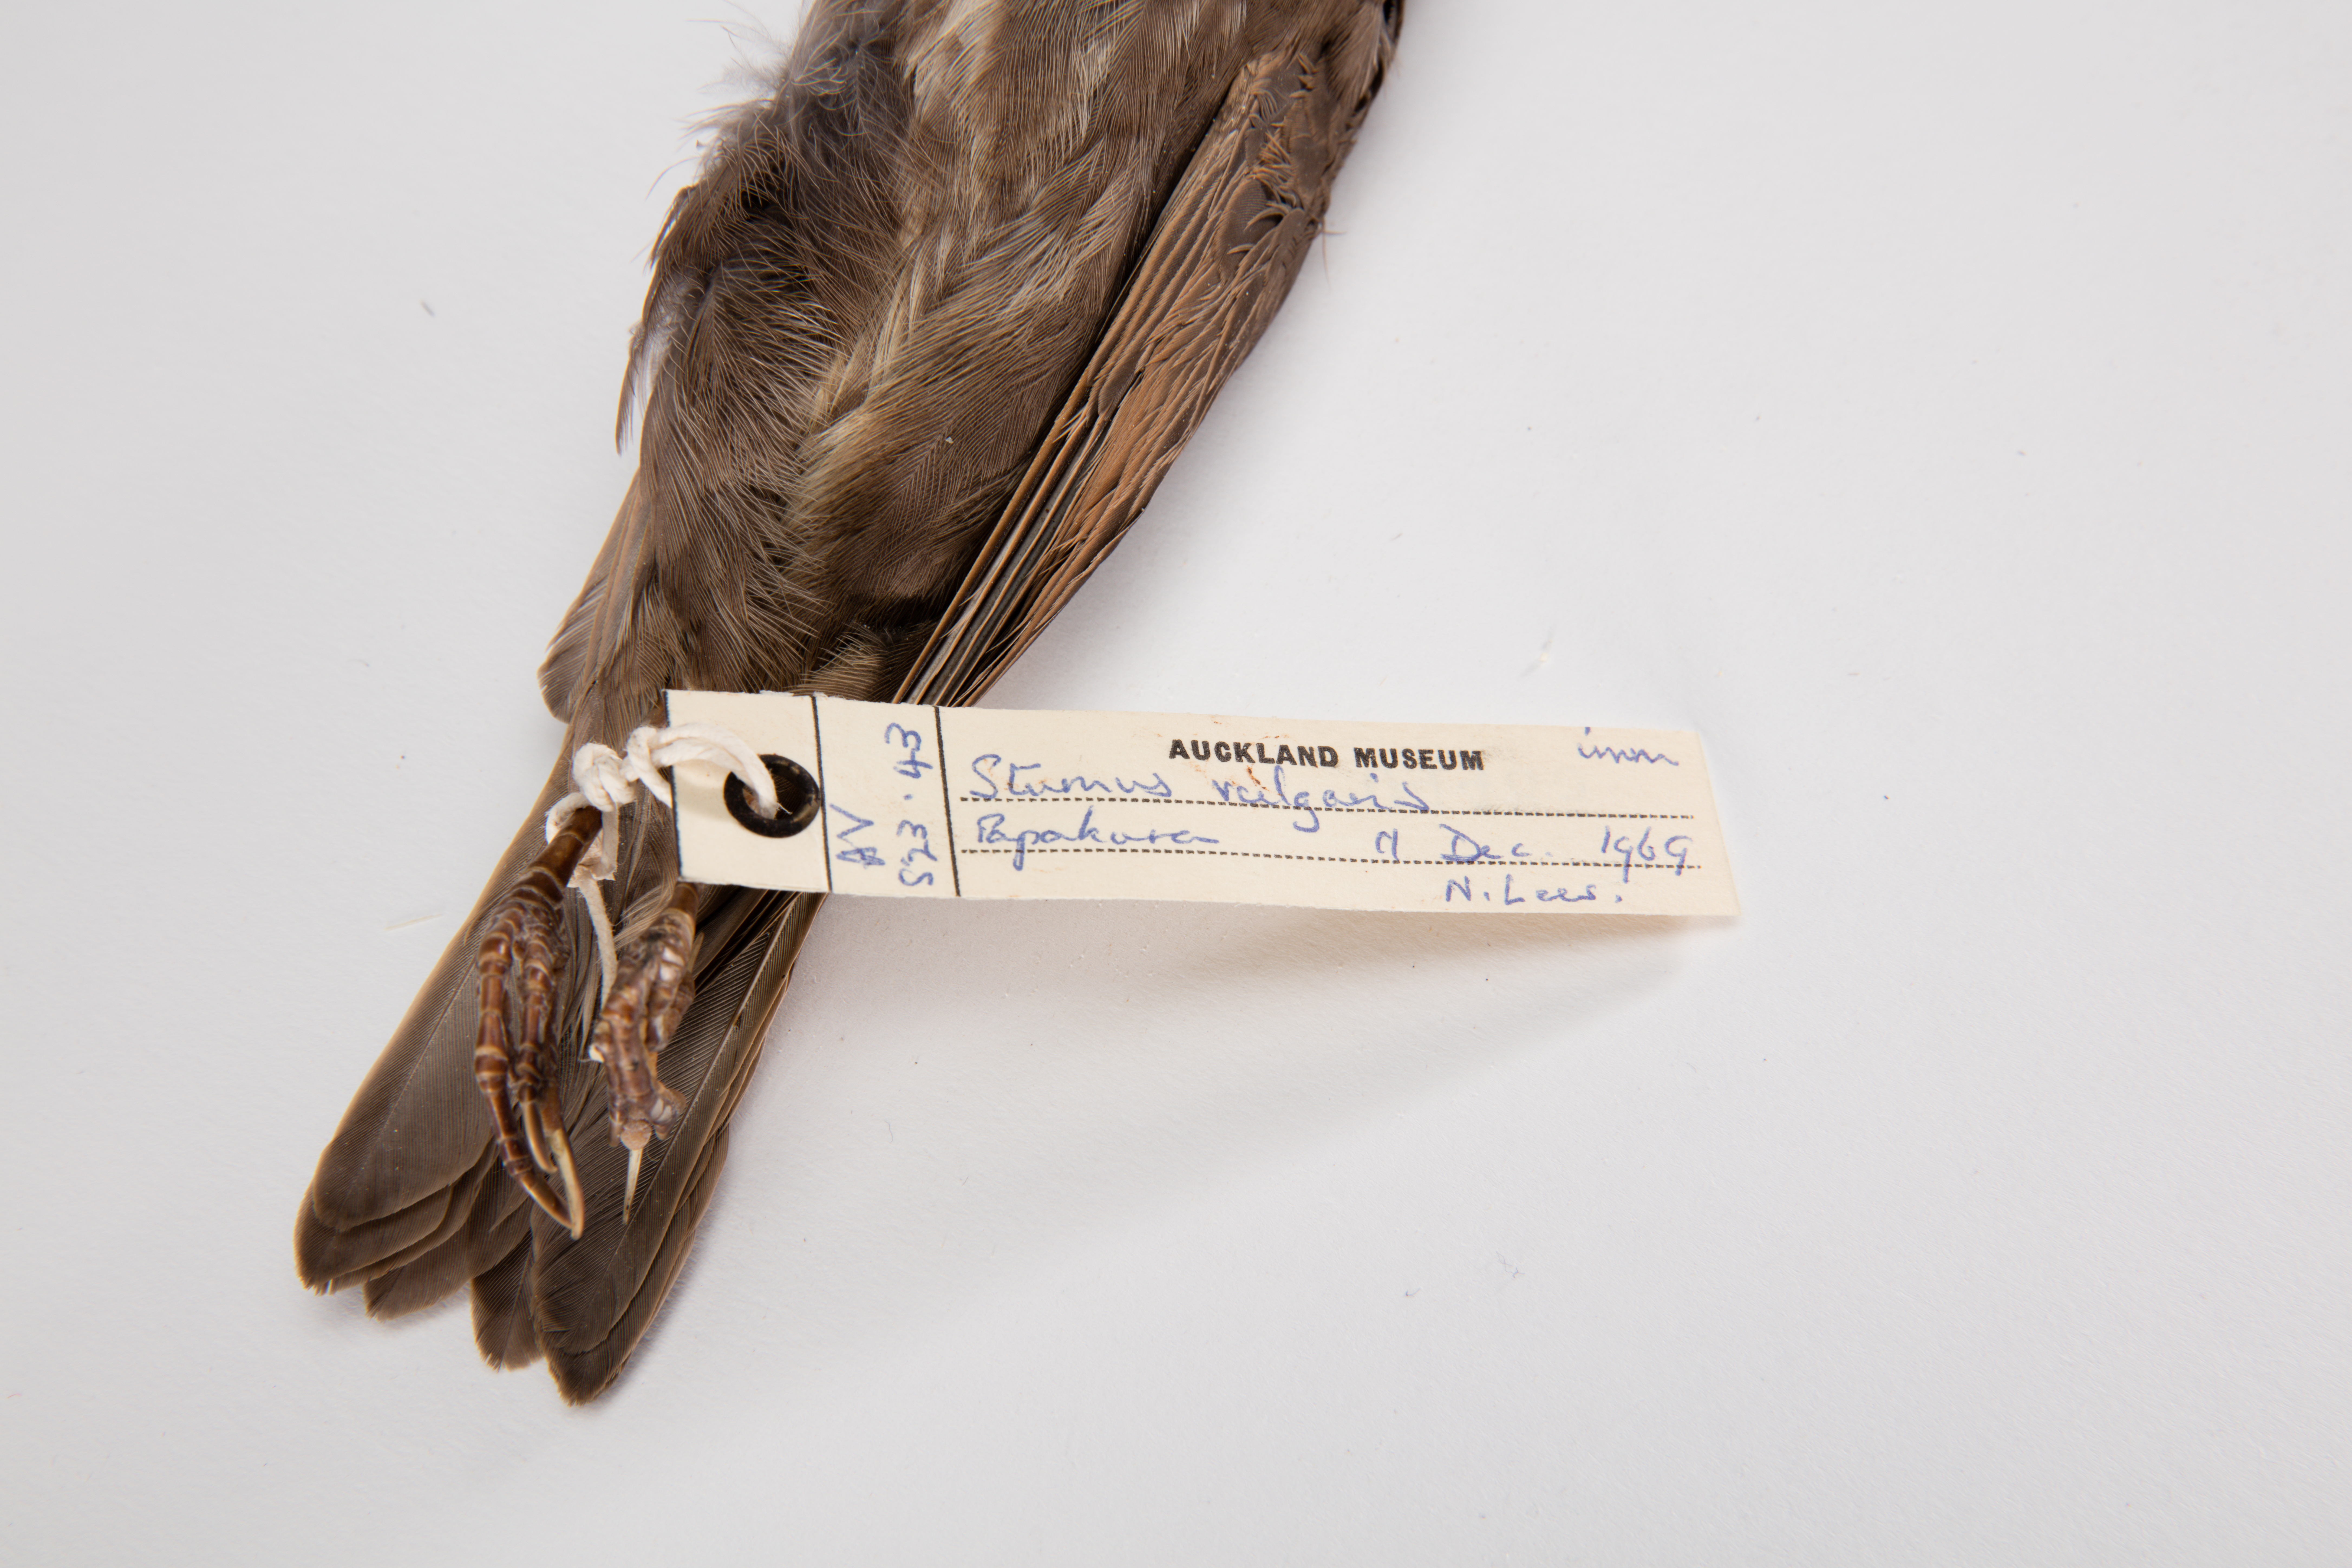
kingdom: Animalia
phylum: Chordata
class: Aves
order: Passeriformes
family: Sturnidae
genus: Sturnus
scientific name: Sturnus vulgaris
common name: Common starling
